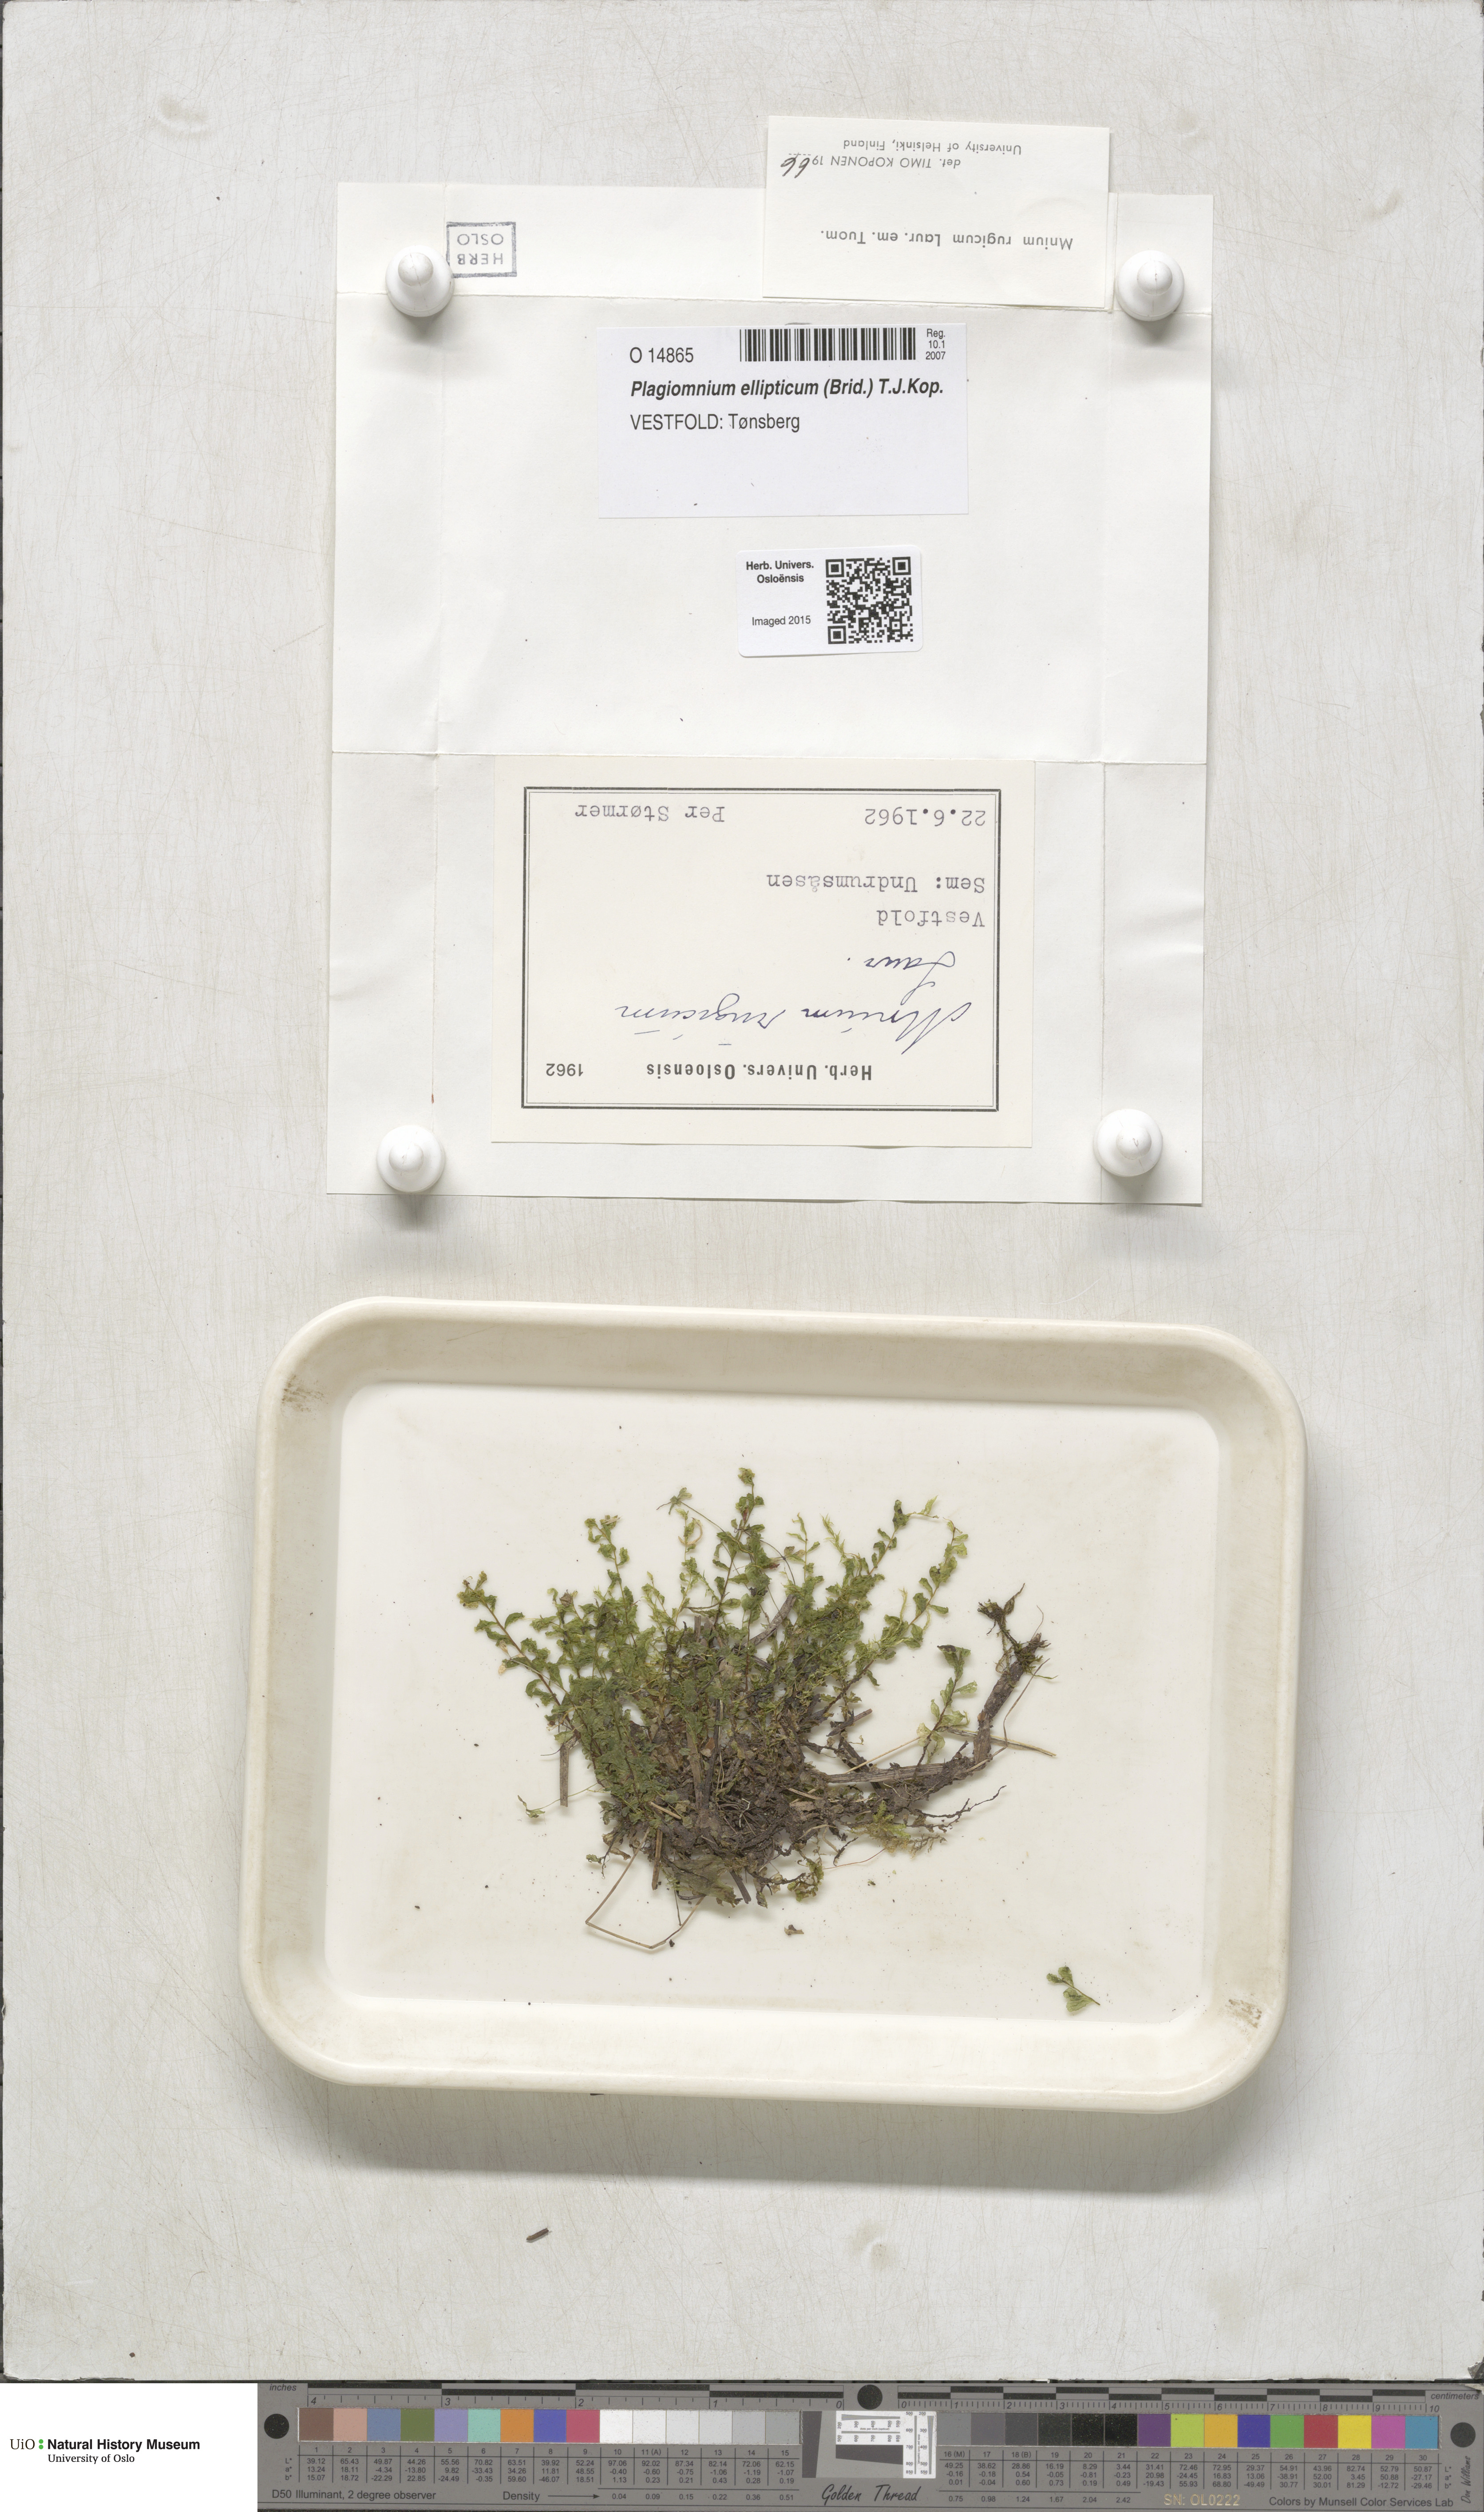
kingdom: Plantae
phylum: Bryophyta
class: Bryopsida
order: Bryales
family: Mniaceae
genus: Plagiomnium
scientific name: Plagiomnium ellipticum
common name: Marsh leafy moss
